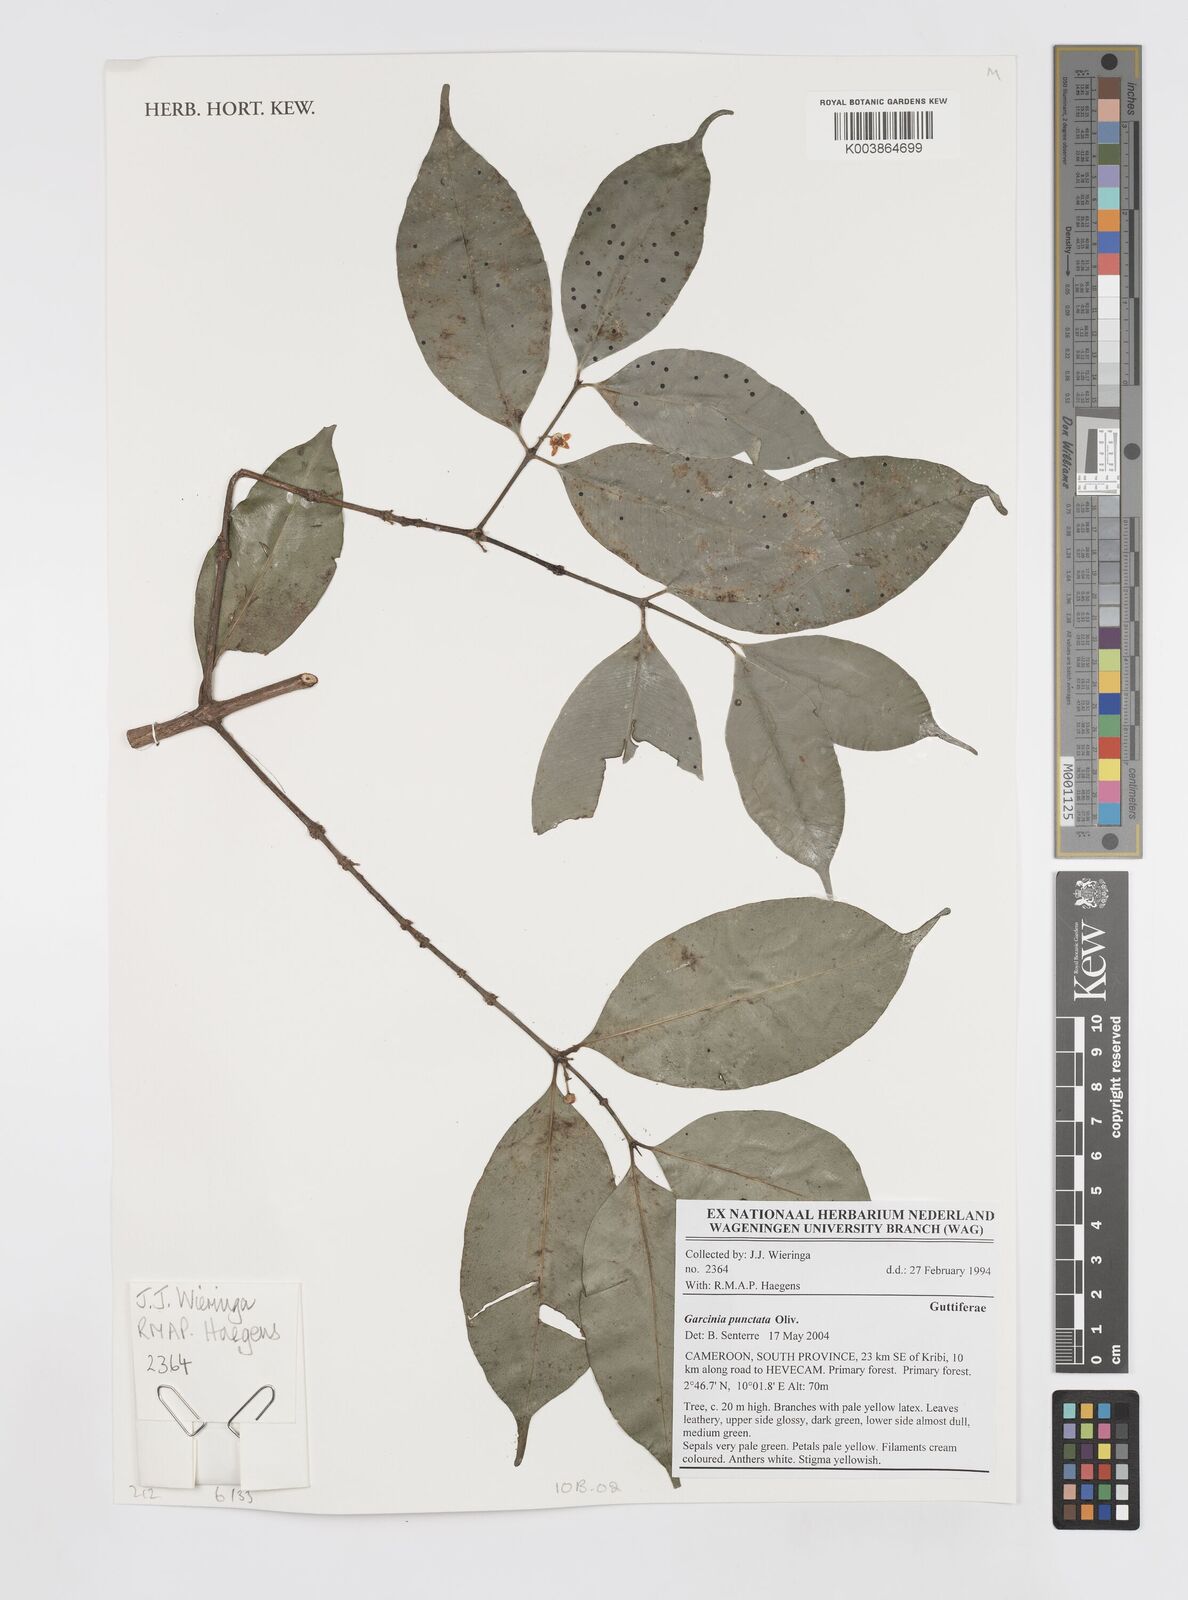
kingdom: Plantae
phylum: Tracheophyta
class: Magnoliopsida
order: Malpighiales
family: Clusiaceae
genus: Garcinia
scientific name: Garcinia punctata
